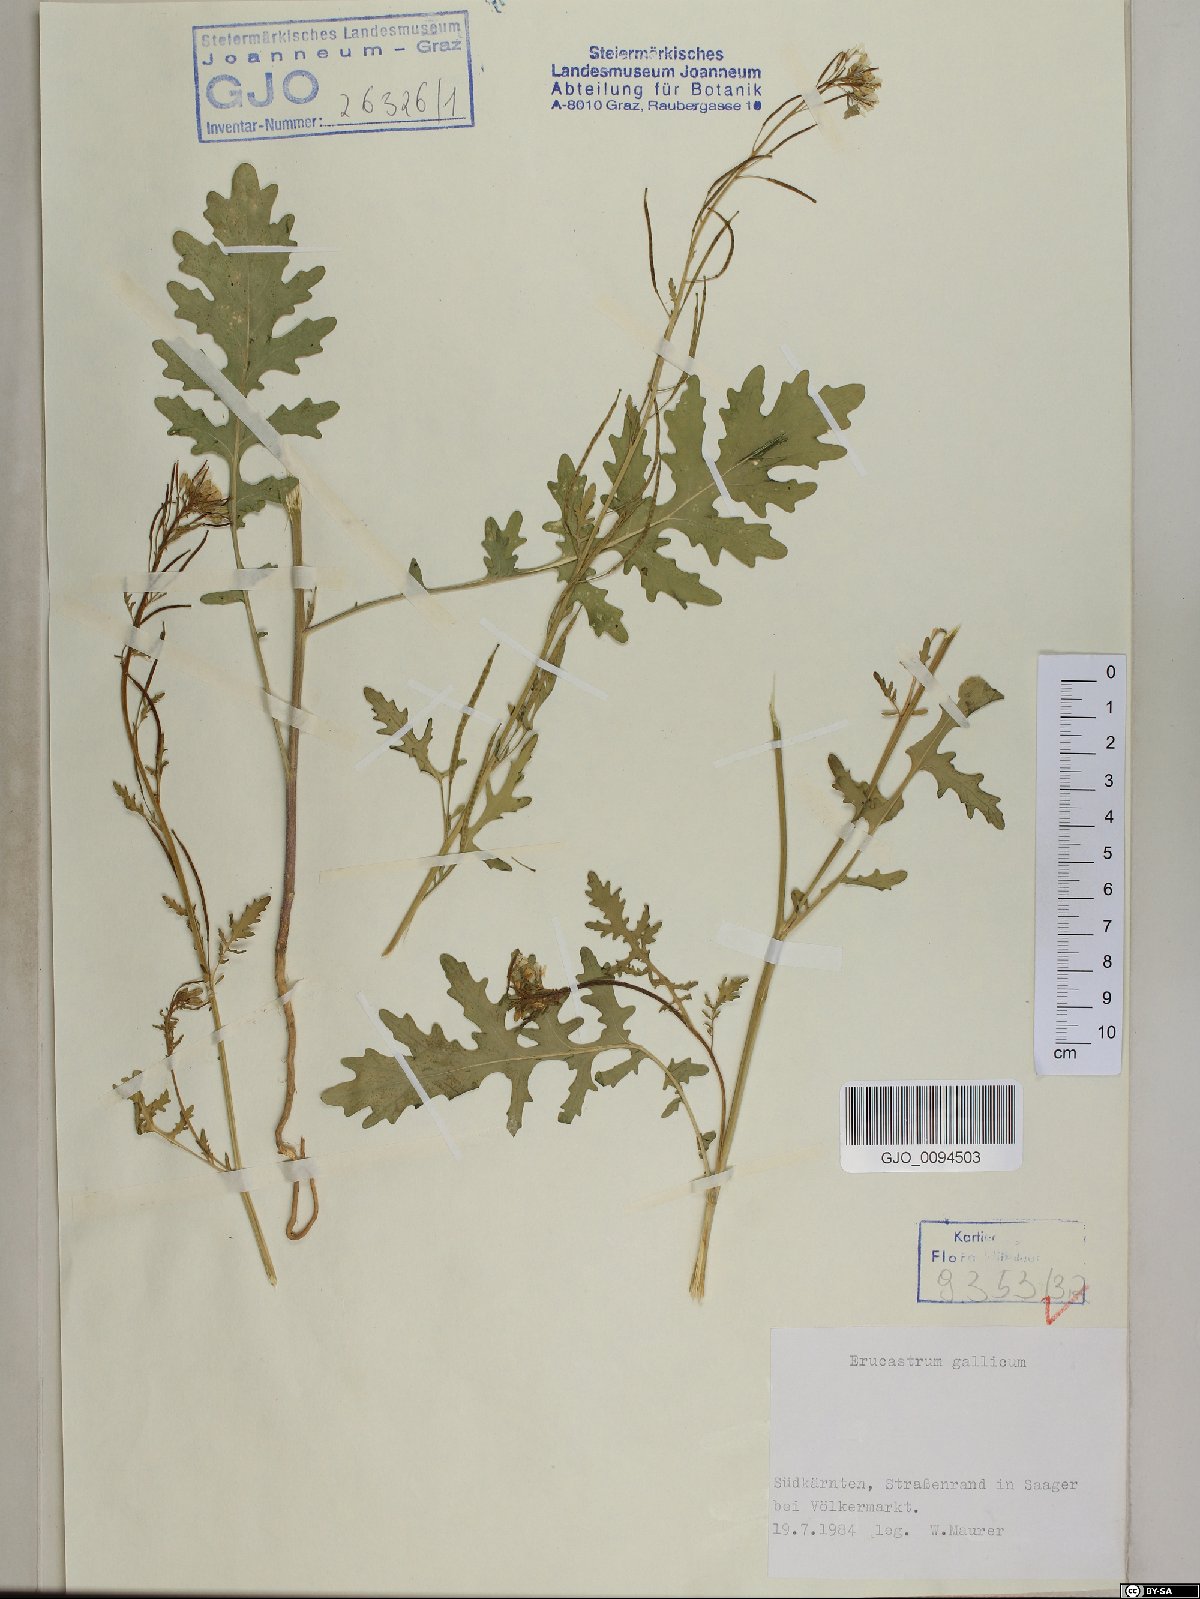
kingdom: Plantae
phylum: Tracheophyta
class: Magnoliopsida
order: Brassicales
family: Brassicaceae
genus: Erucastrum
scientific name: Erucastrum gallicum
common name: Hairy rocket
